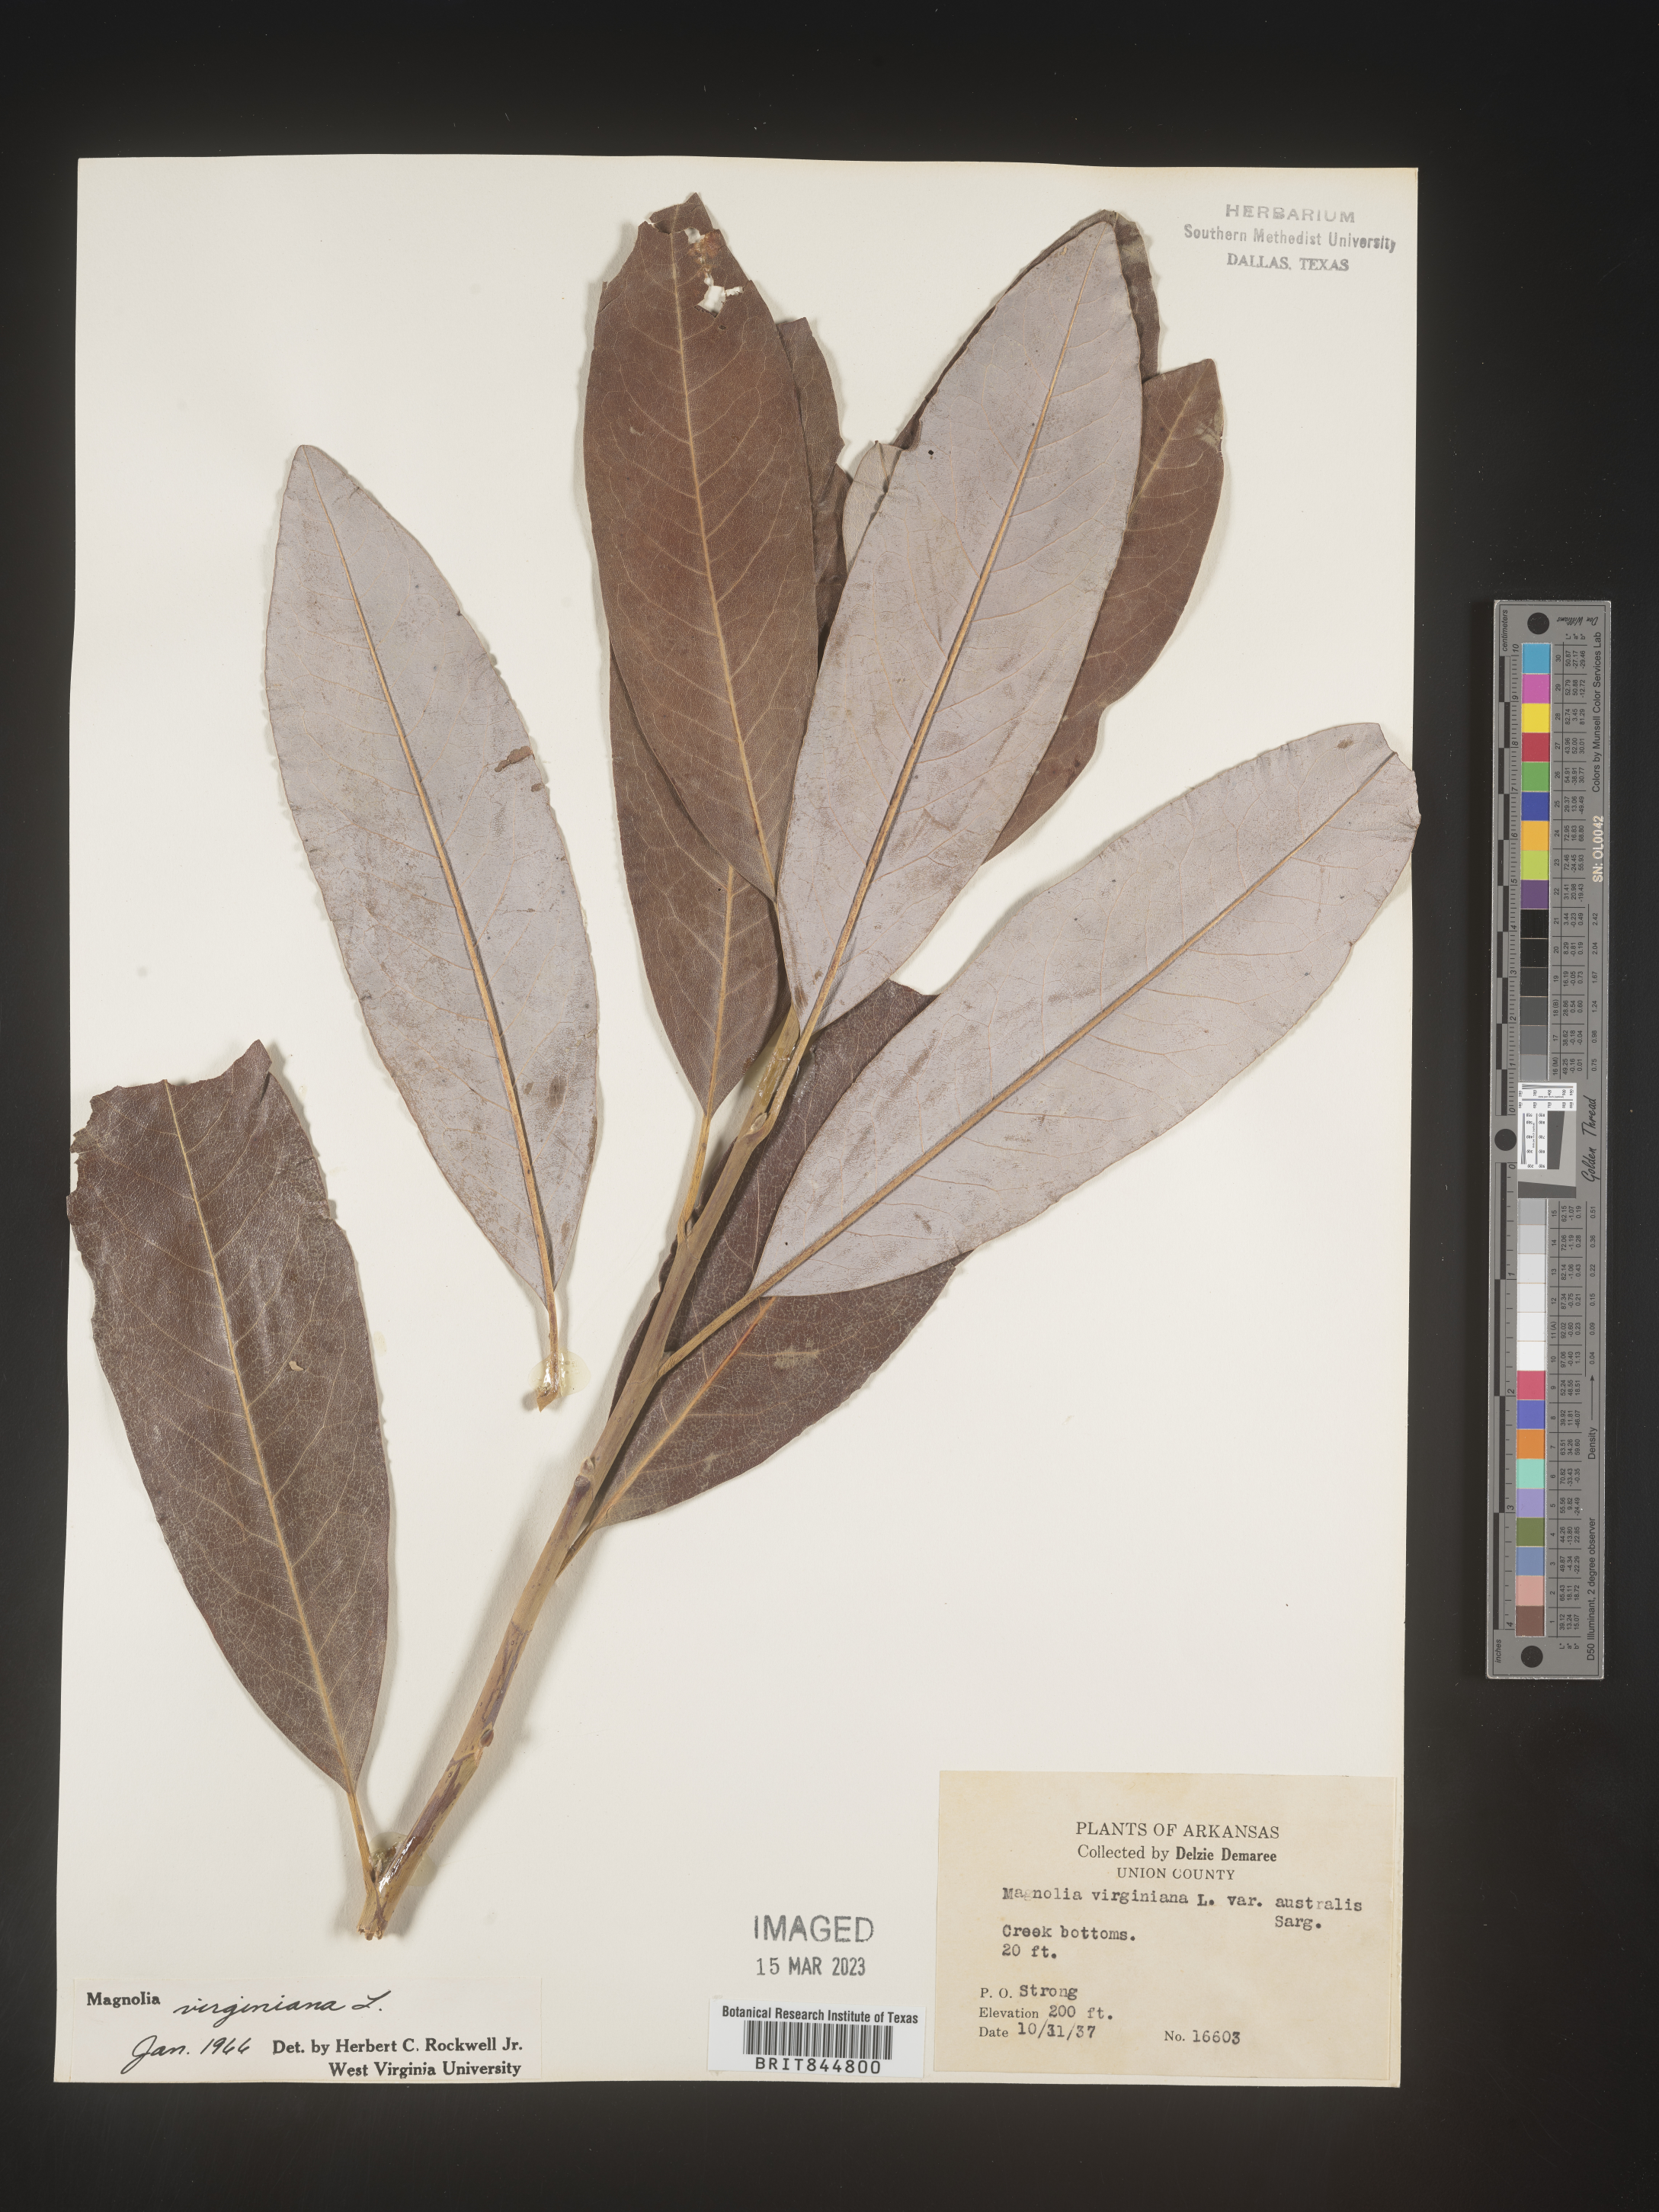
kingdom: Plantae
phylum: Tracheophyta
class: Magnoliopsida
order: Magnoliales
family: Magnoliaceae
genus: Magnolia
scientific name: Magnolia virginiana
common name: Swamp bay
